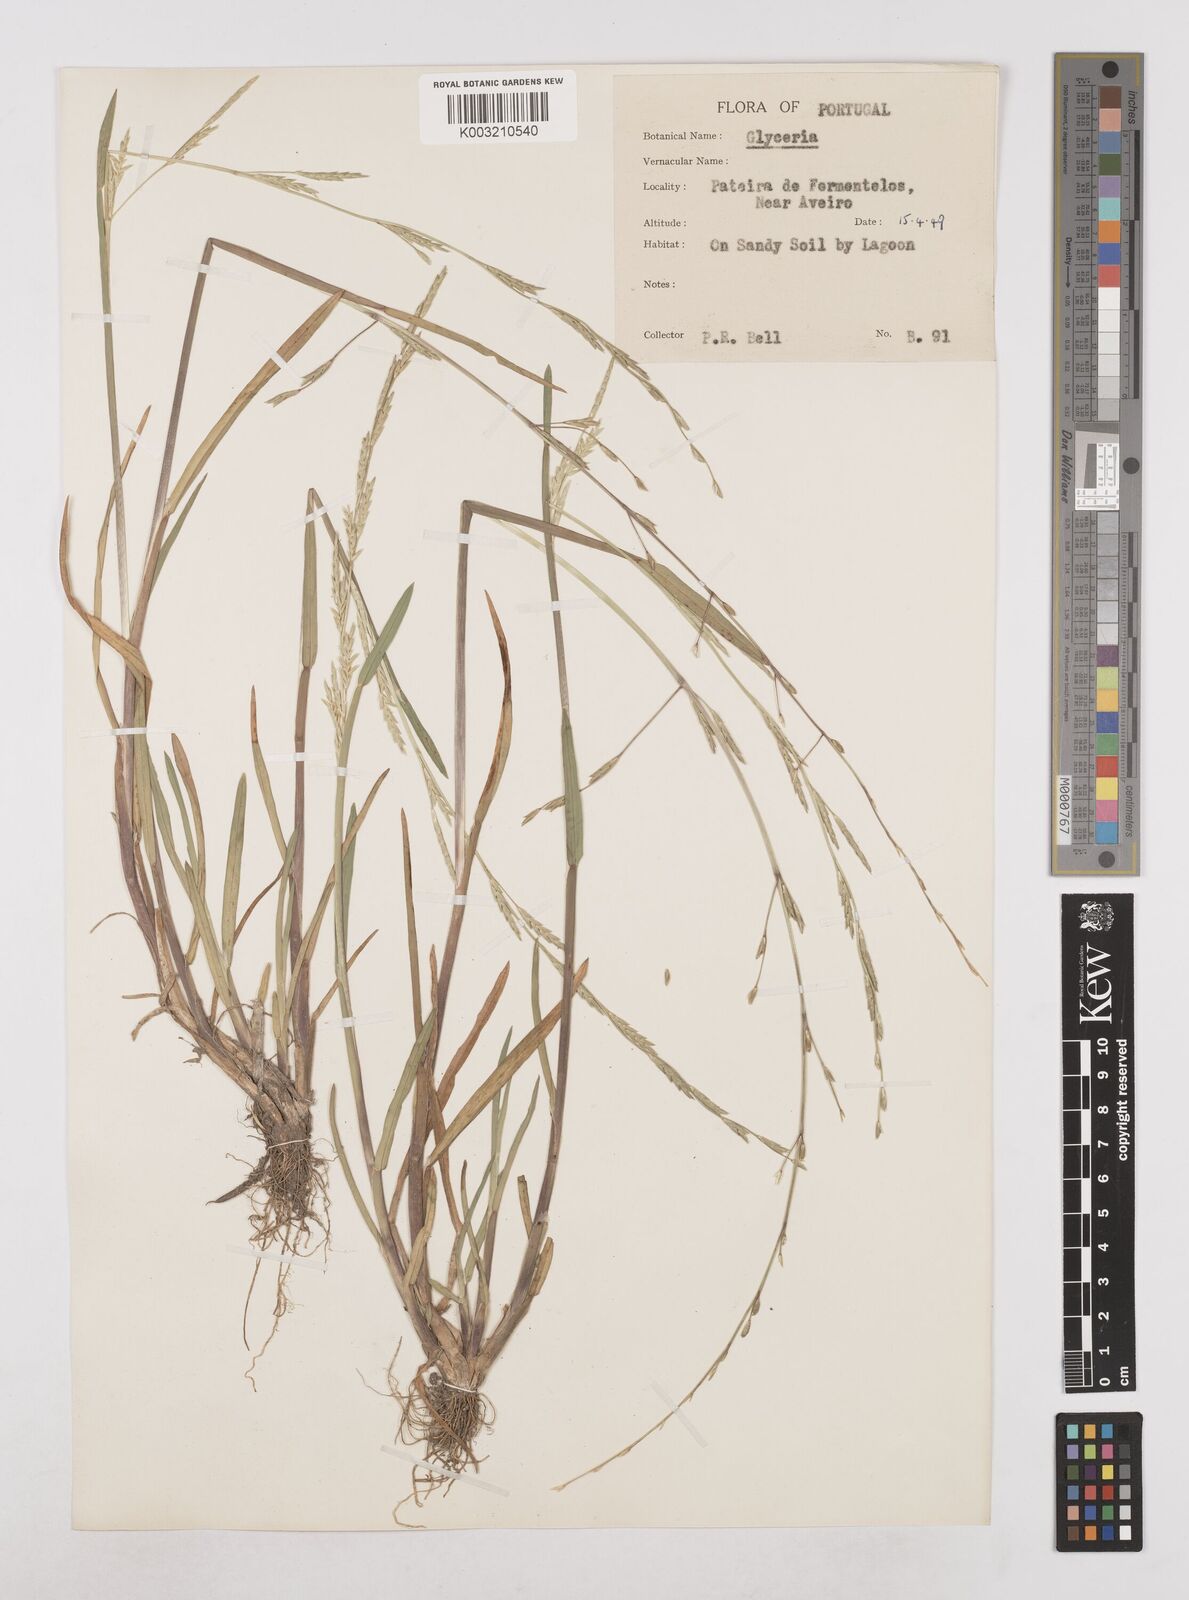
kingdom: Plantae
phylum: Tracheophyta
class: Liliopsida
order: Poales
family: Poaceae
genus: Glyceria
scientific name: Glyceria declinata
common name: Small sweet-grass
